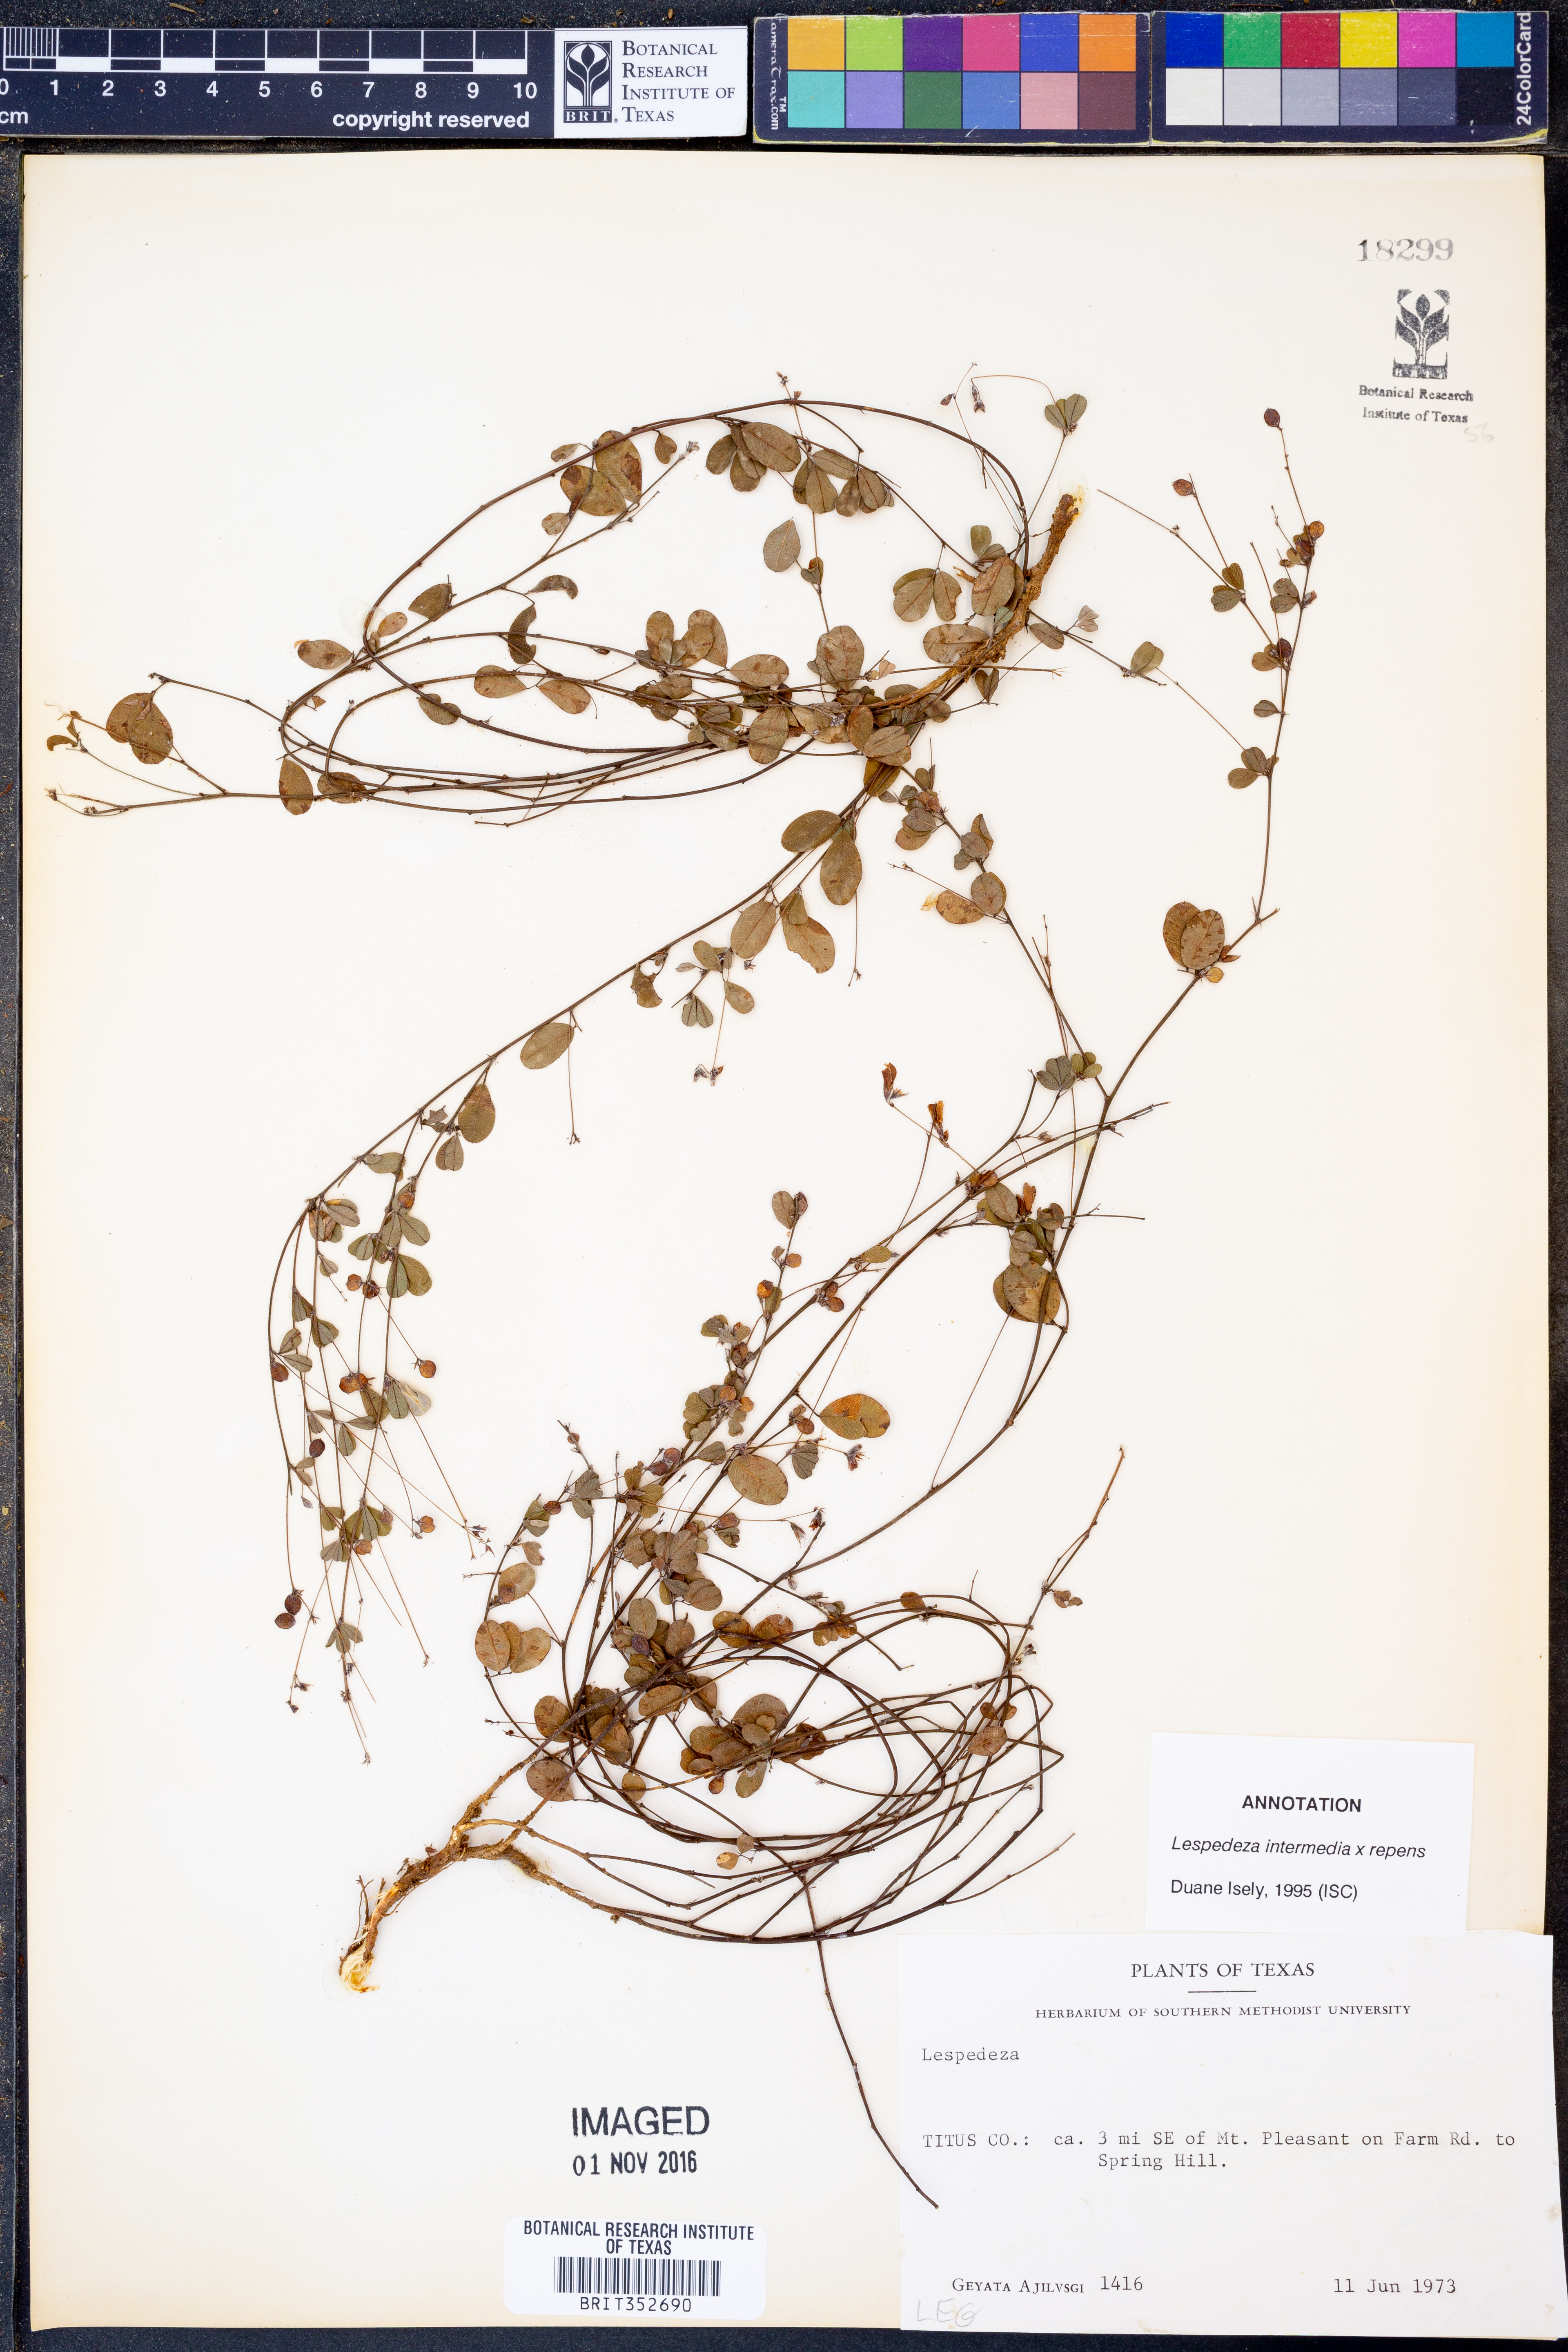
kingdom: Plantae
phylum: Tracheophyta
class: Magnoliopsida
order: Fabales
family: Fabaceae
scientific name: Fabaceae
